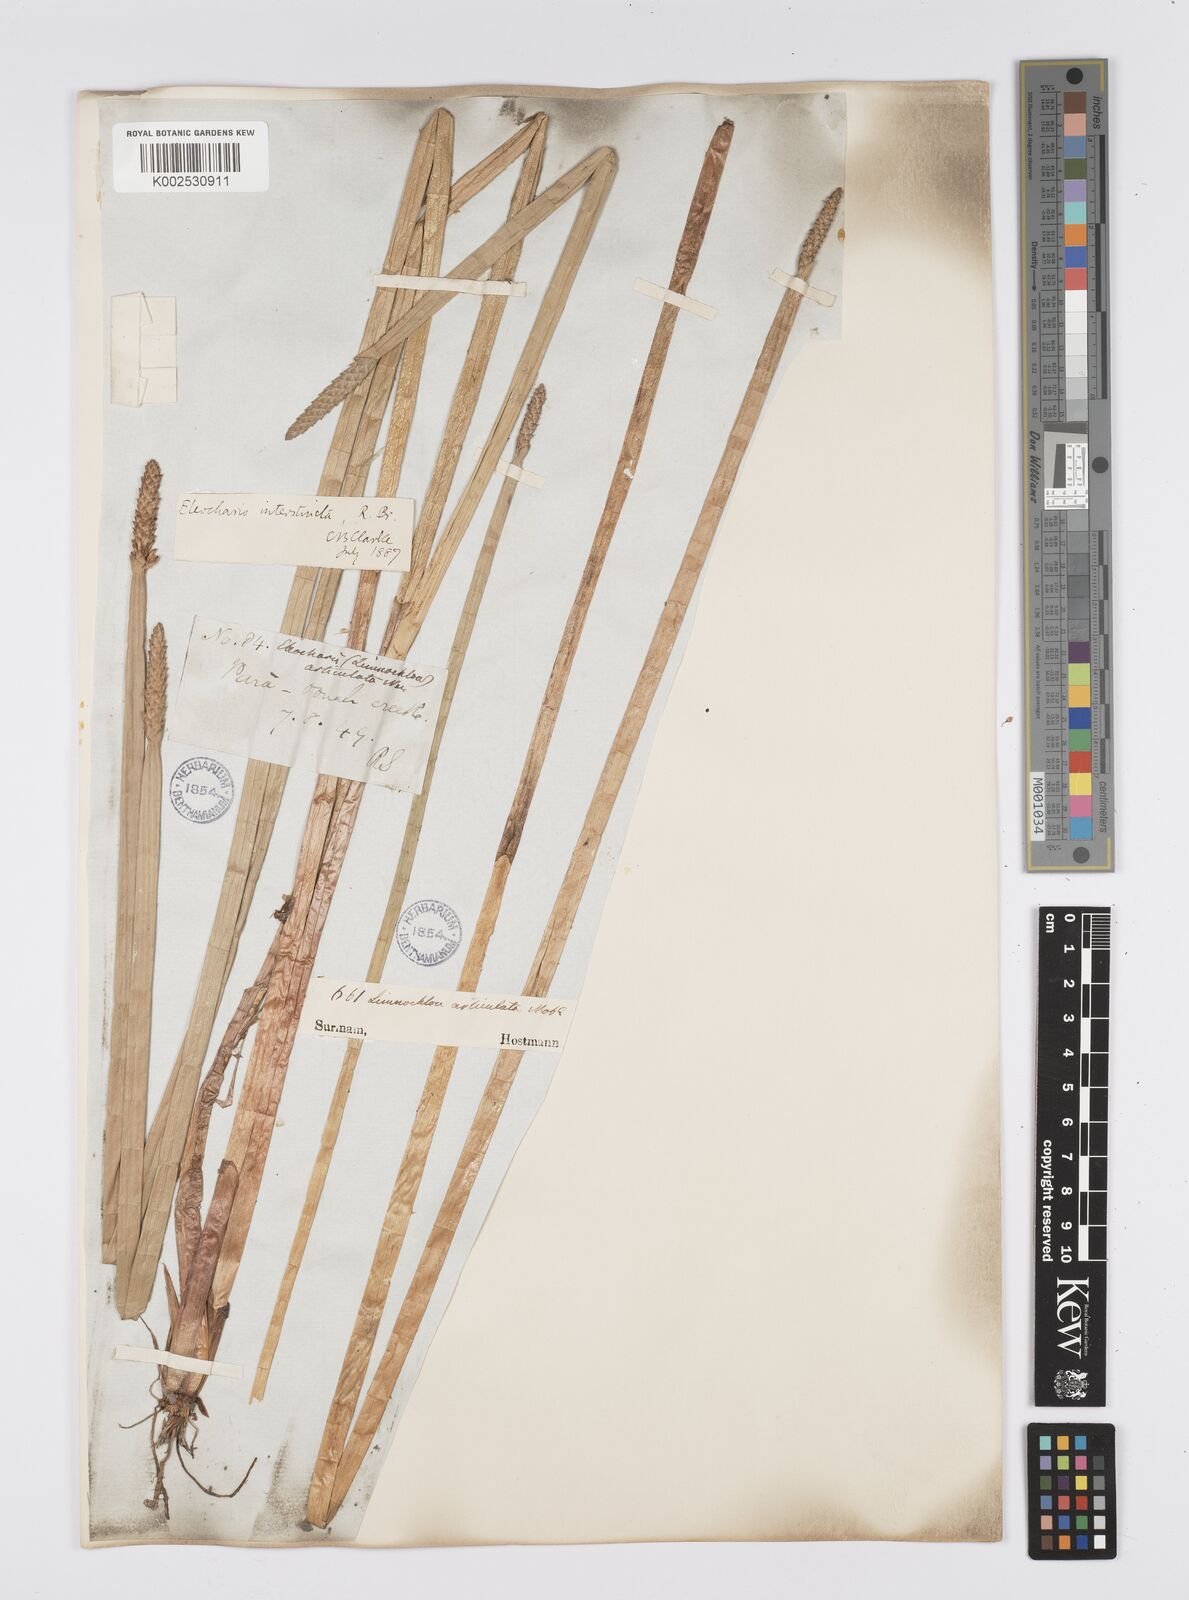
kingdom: Plantae
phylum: Tracheophyta
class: Liliopsida
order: Poales
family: Cyperaceae
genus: Eleocharis
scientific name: Eleocharis interstincta
